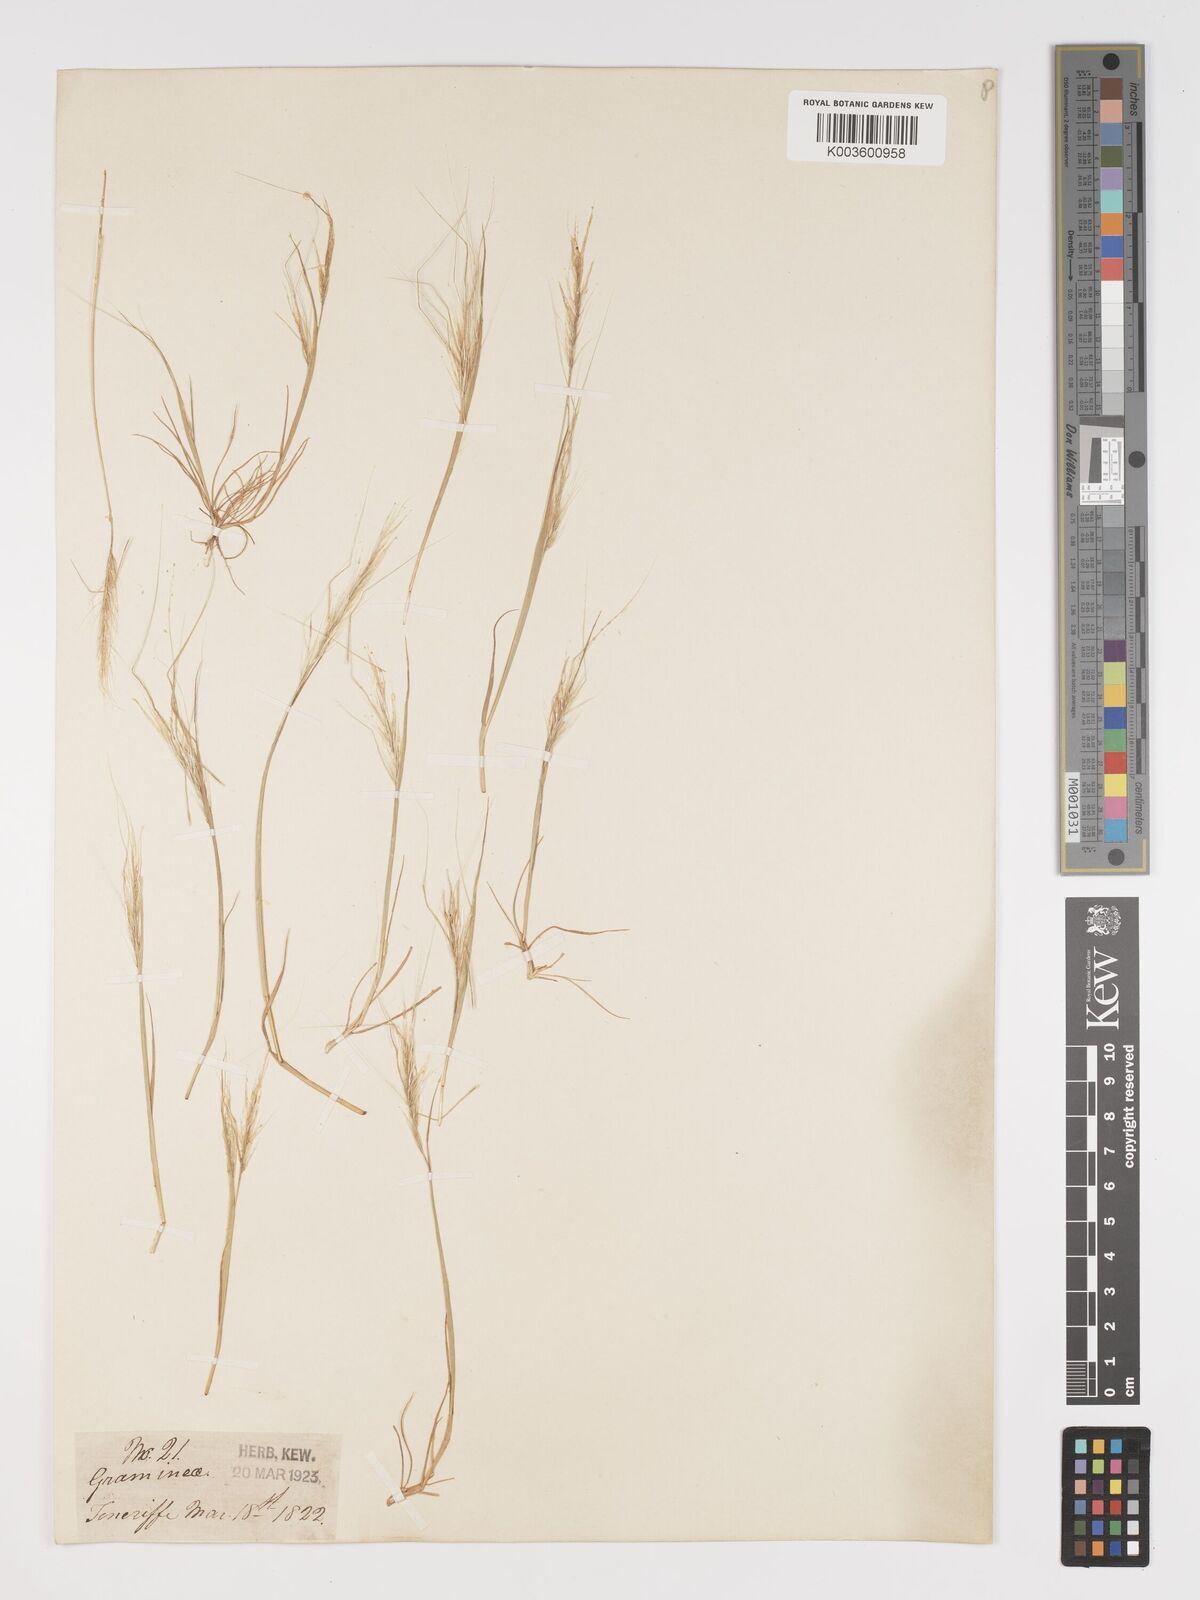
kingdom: Plantae
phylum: Tracheophyta
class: Liliopsida
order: Poales
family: Poaceae
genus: Stipellula
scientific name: Stipellula capensis
